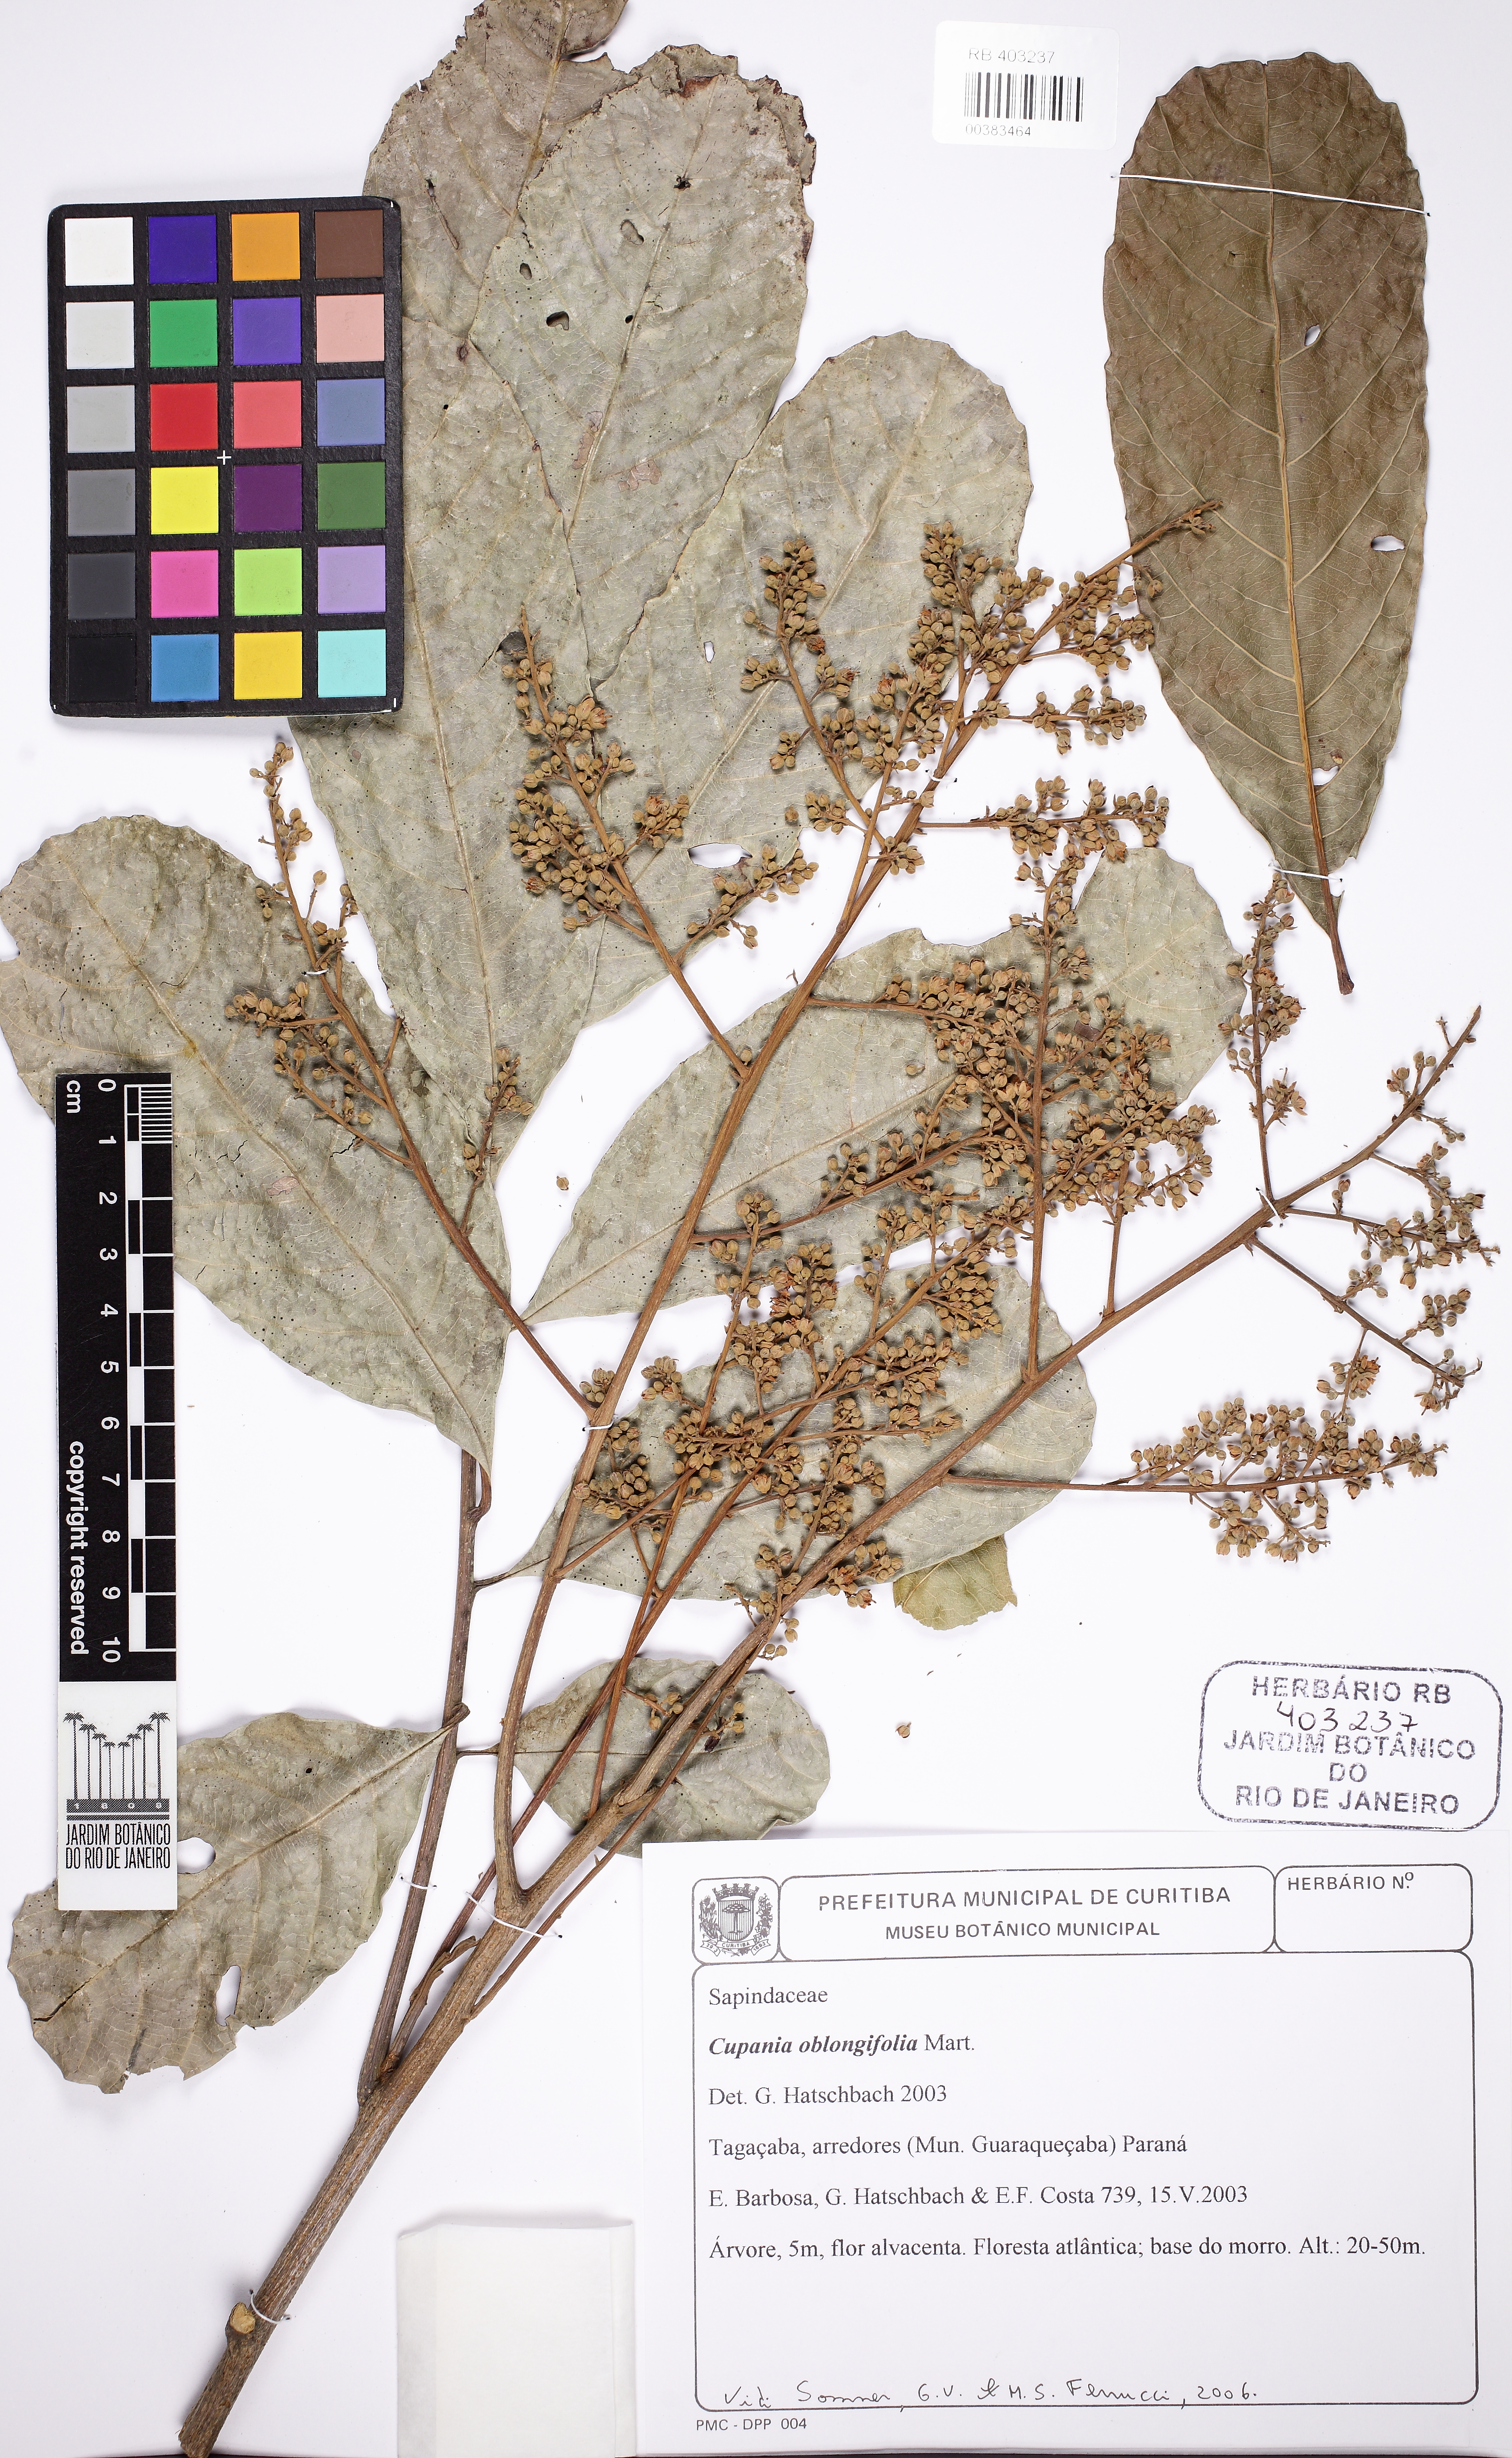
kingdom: Plantae
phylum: Tracheophyta
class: Magnoliopsida
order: Sapindales
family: Sapindaceae
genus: Cupania
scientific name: Cupania oblongifolia
